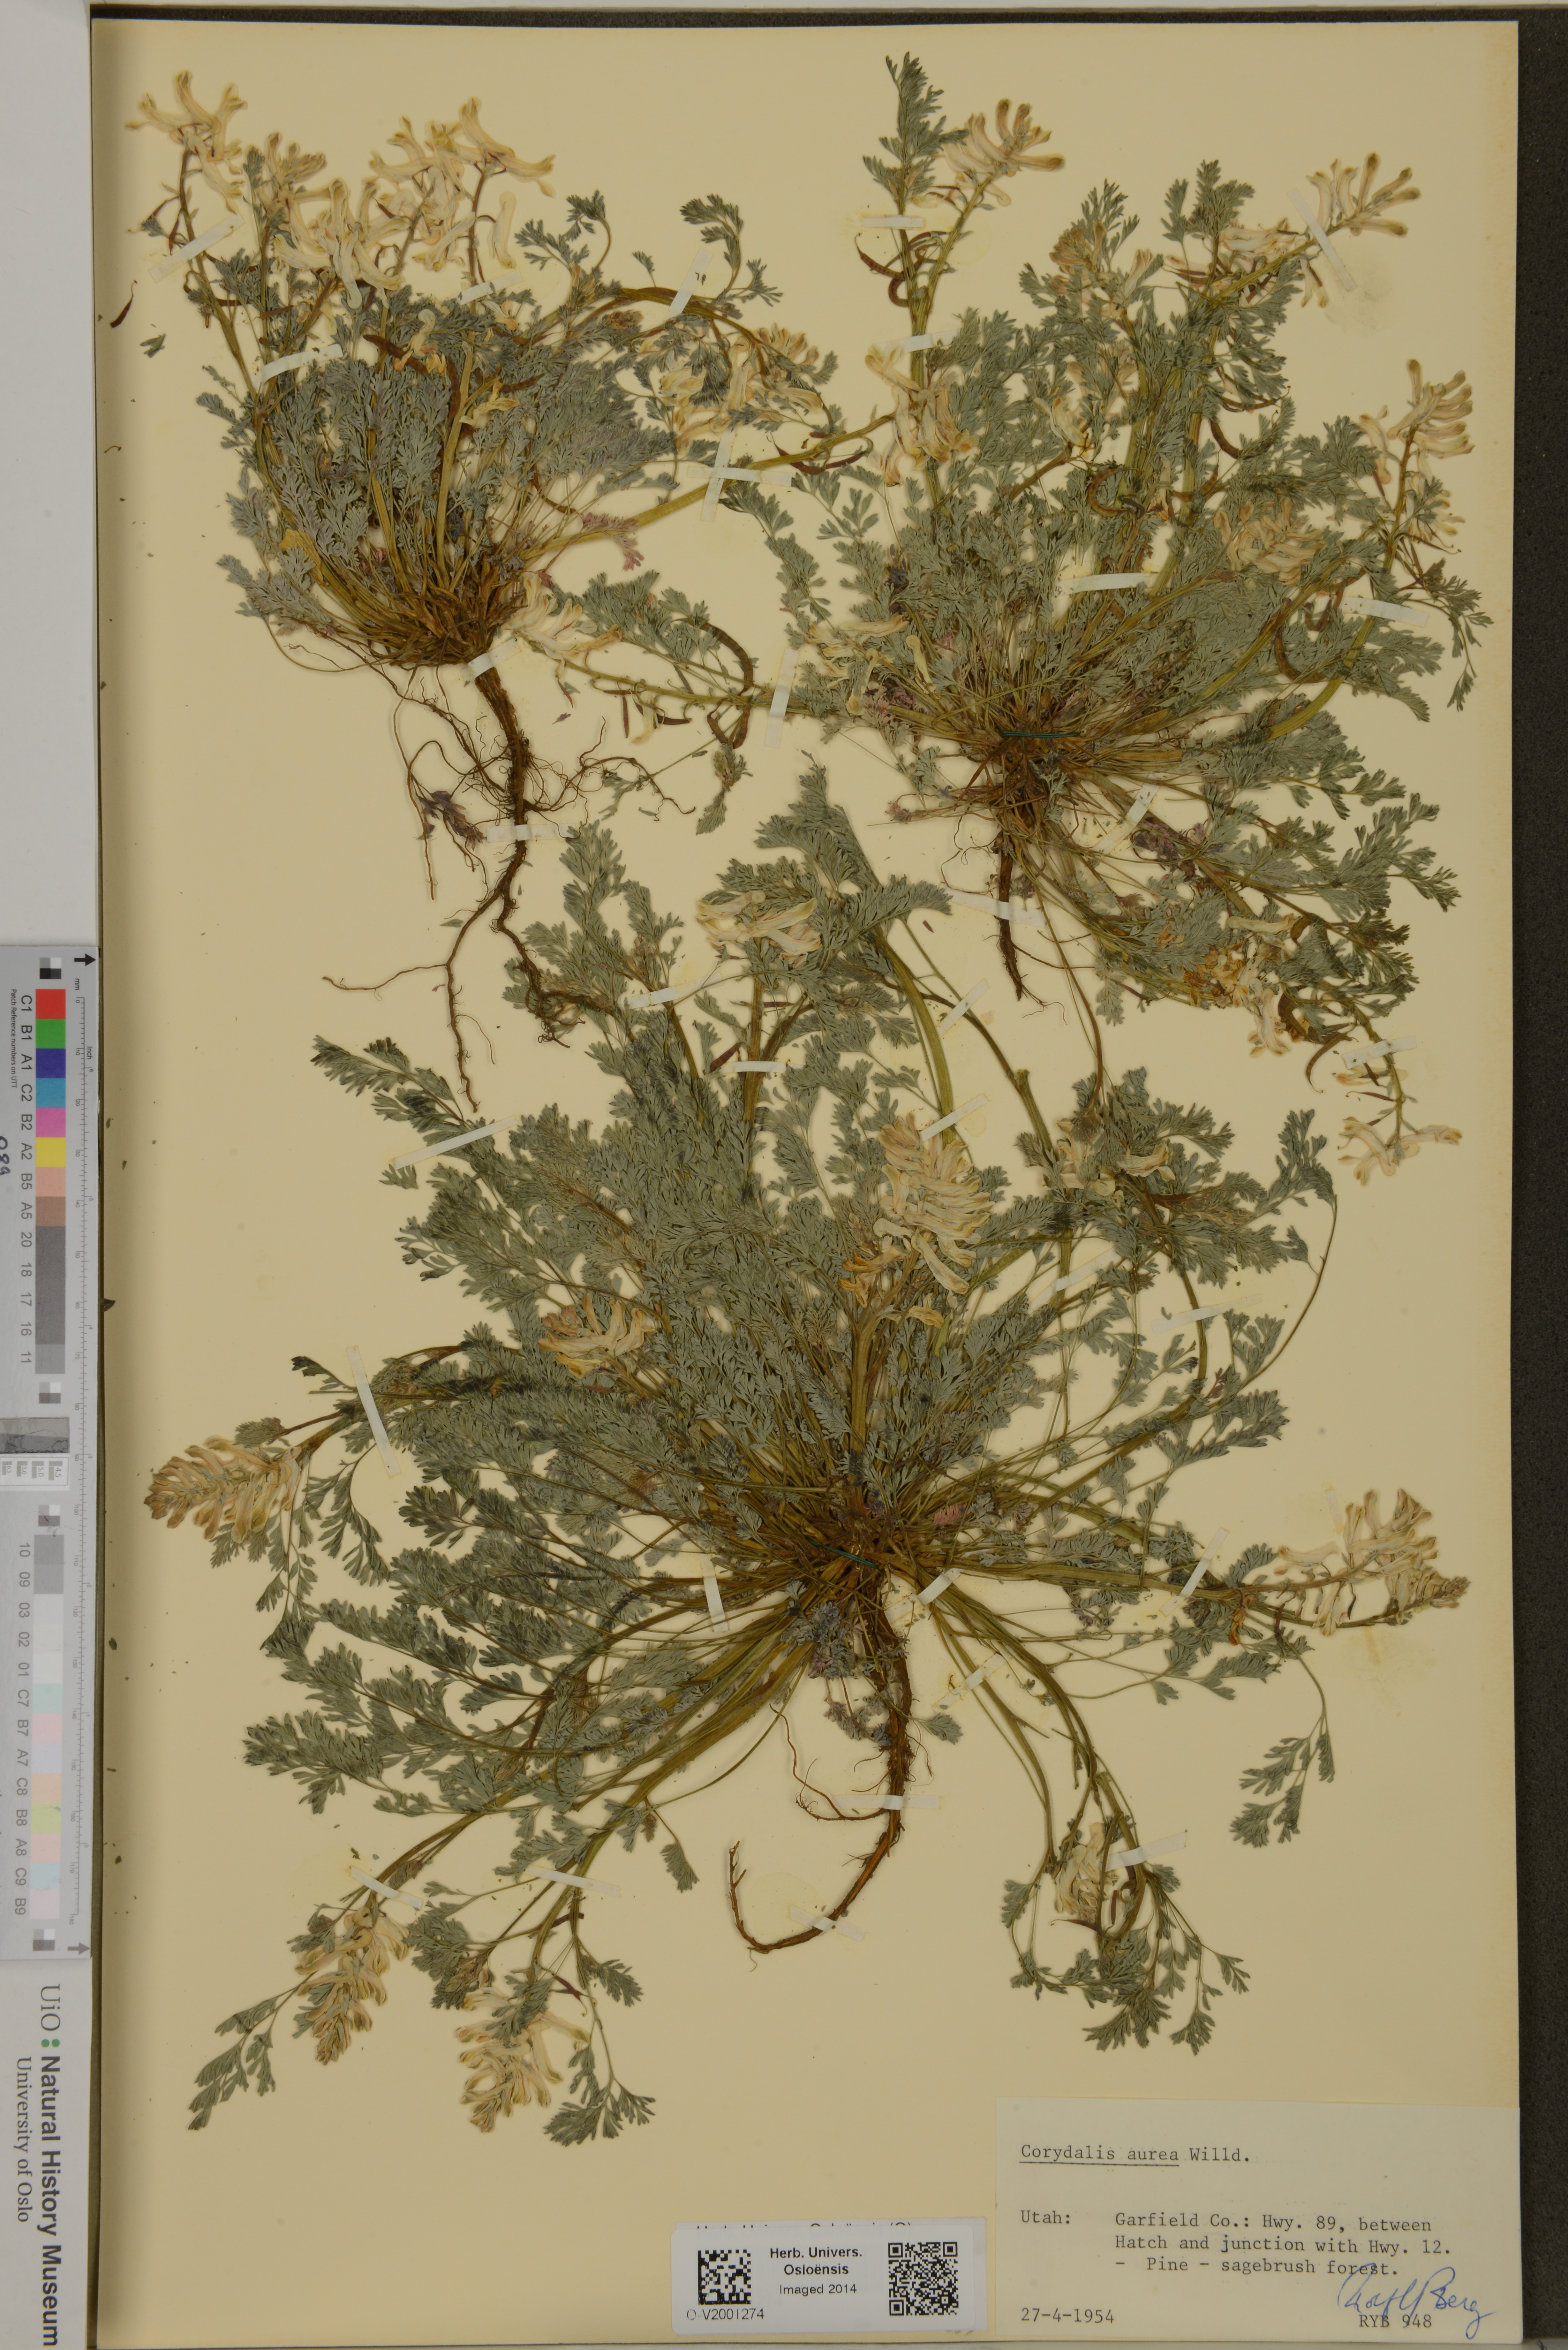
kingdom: Plantae
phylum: Tracheophyta
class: Magnoliopsida
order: Ranunculales
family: Papaveraceae
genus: Corydalis
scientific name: Corydalis aurea
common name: Golden corydalis
